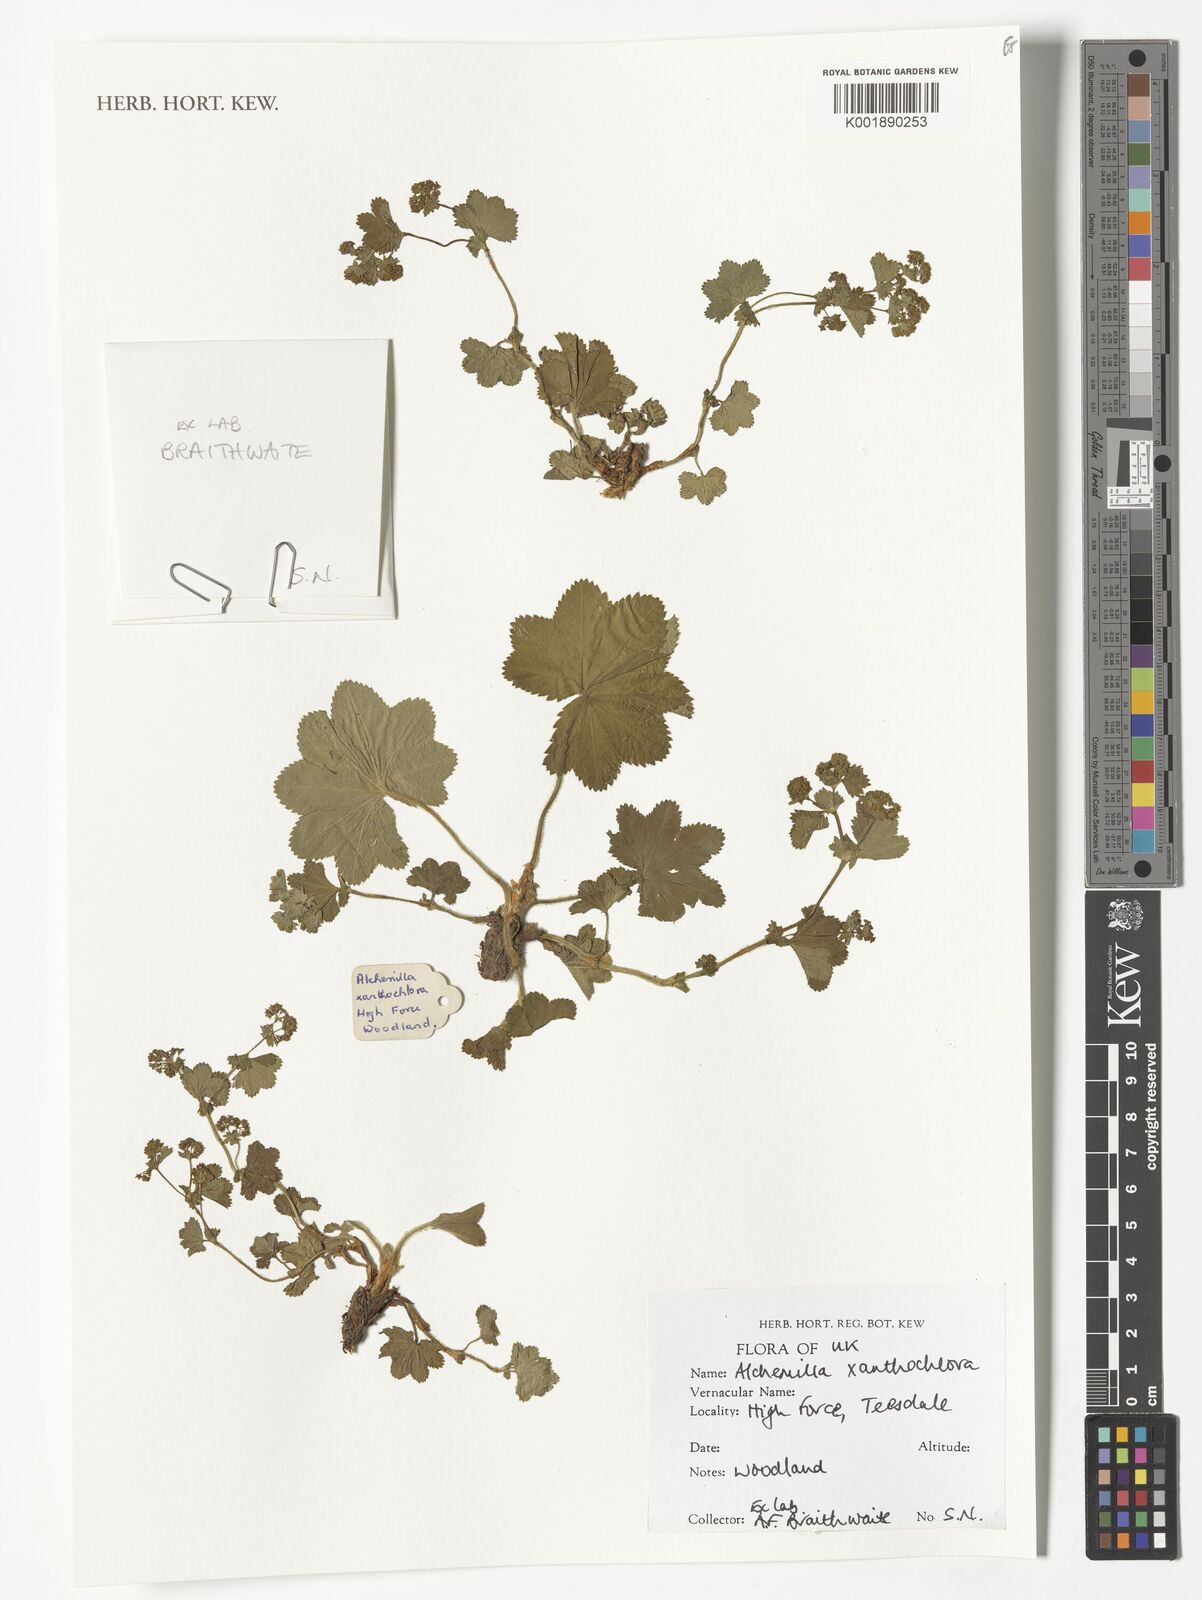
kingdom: Plantae
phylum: Tracheophyta
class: Magnoliopsida
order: Rosales
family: Rosaceae
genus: Alchemilla
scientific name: Alchemilla xanthochlora
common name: Intermediate lady's-mantle
